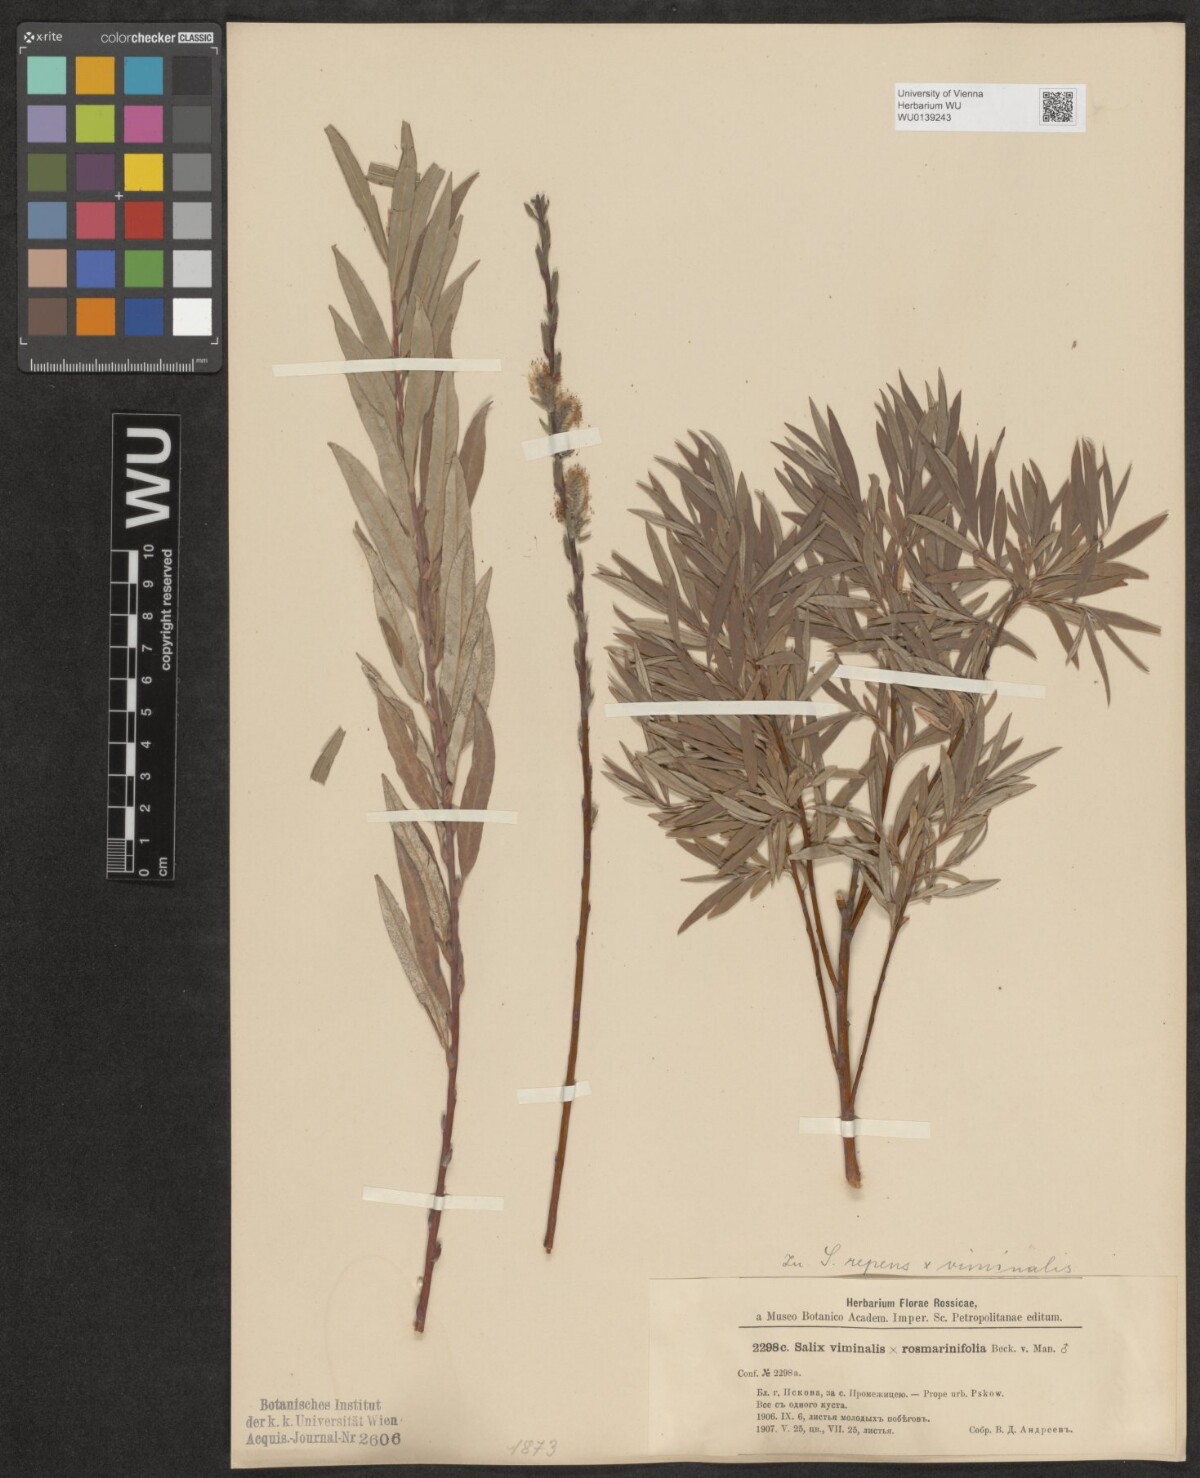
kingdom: Plantae
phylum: Tracheophyta
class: Magnoliopsida
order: Malpighiales
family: Salicaceae
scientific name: Salicaceae
